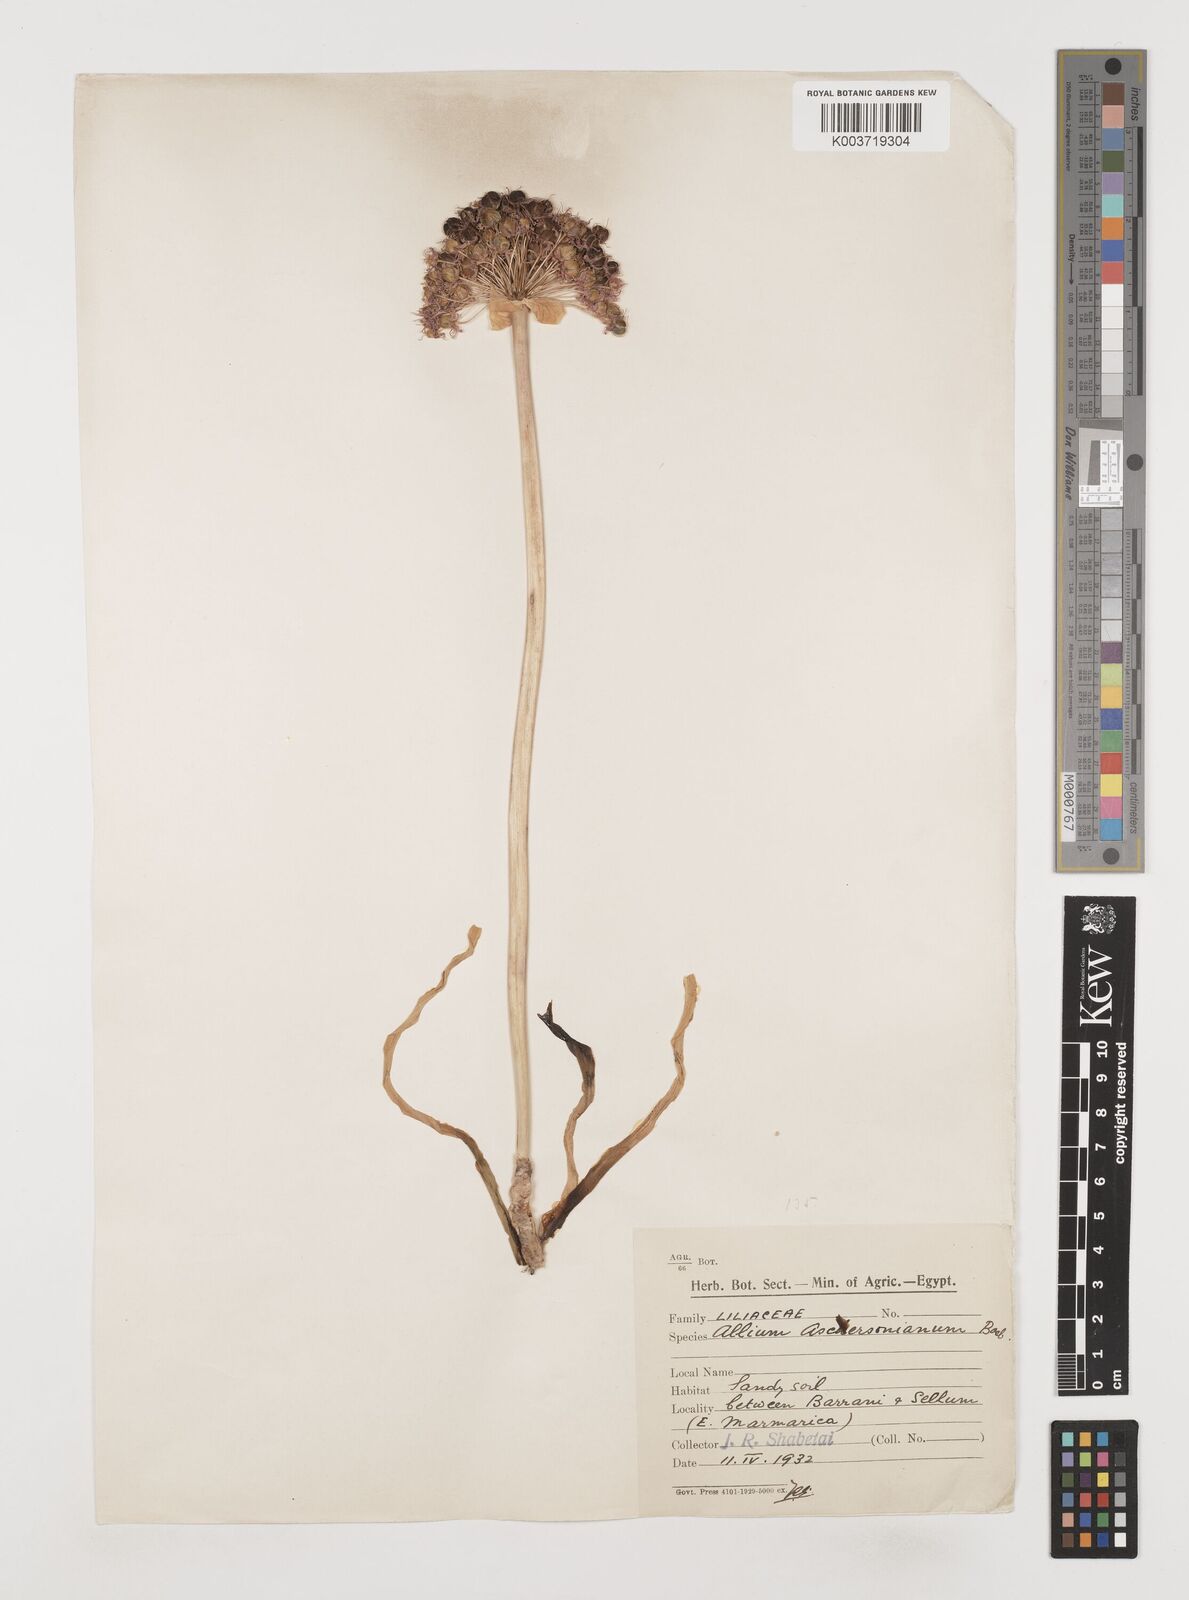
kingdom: Plantae
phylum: Tracheophyta
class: Liliopsida
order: Asparagales
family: Amaryllidaceae
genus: Allium
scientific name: Allium orientale
